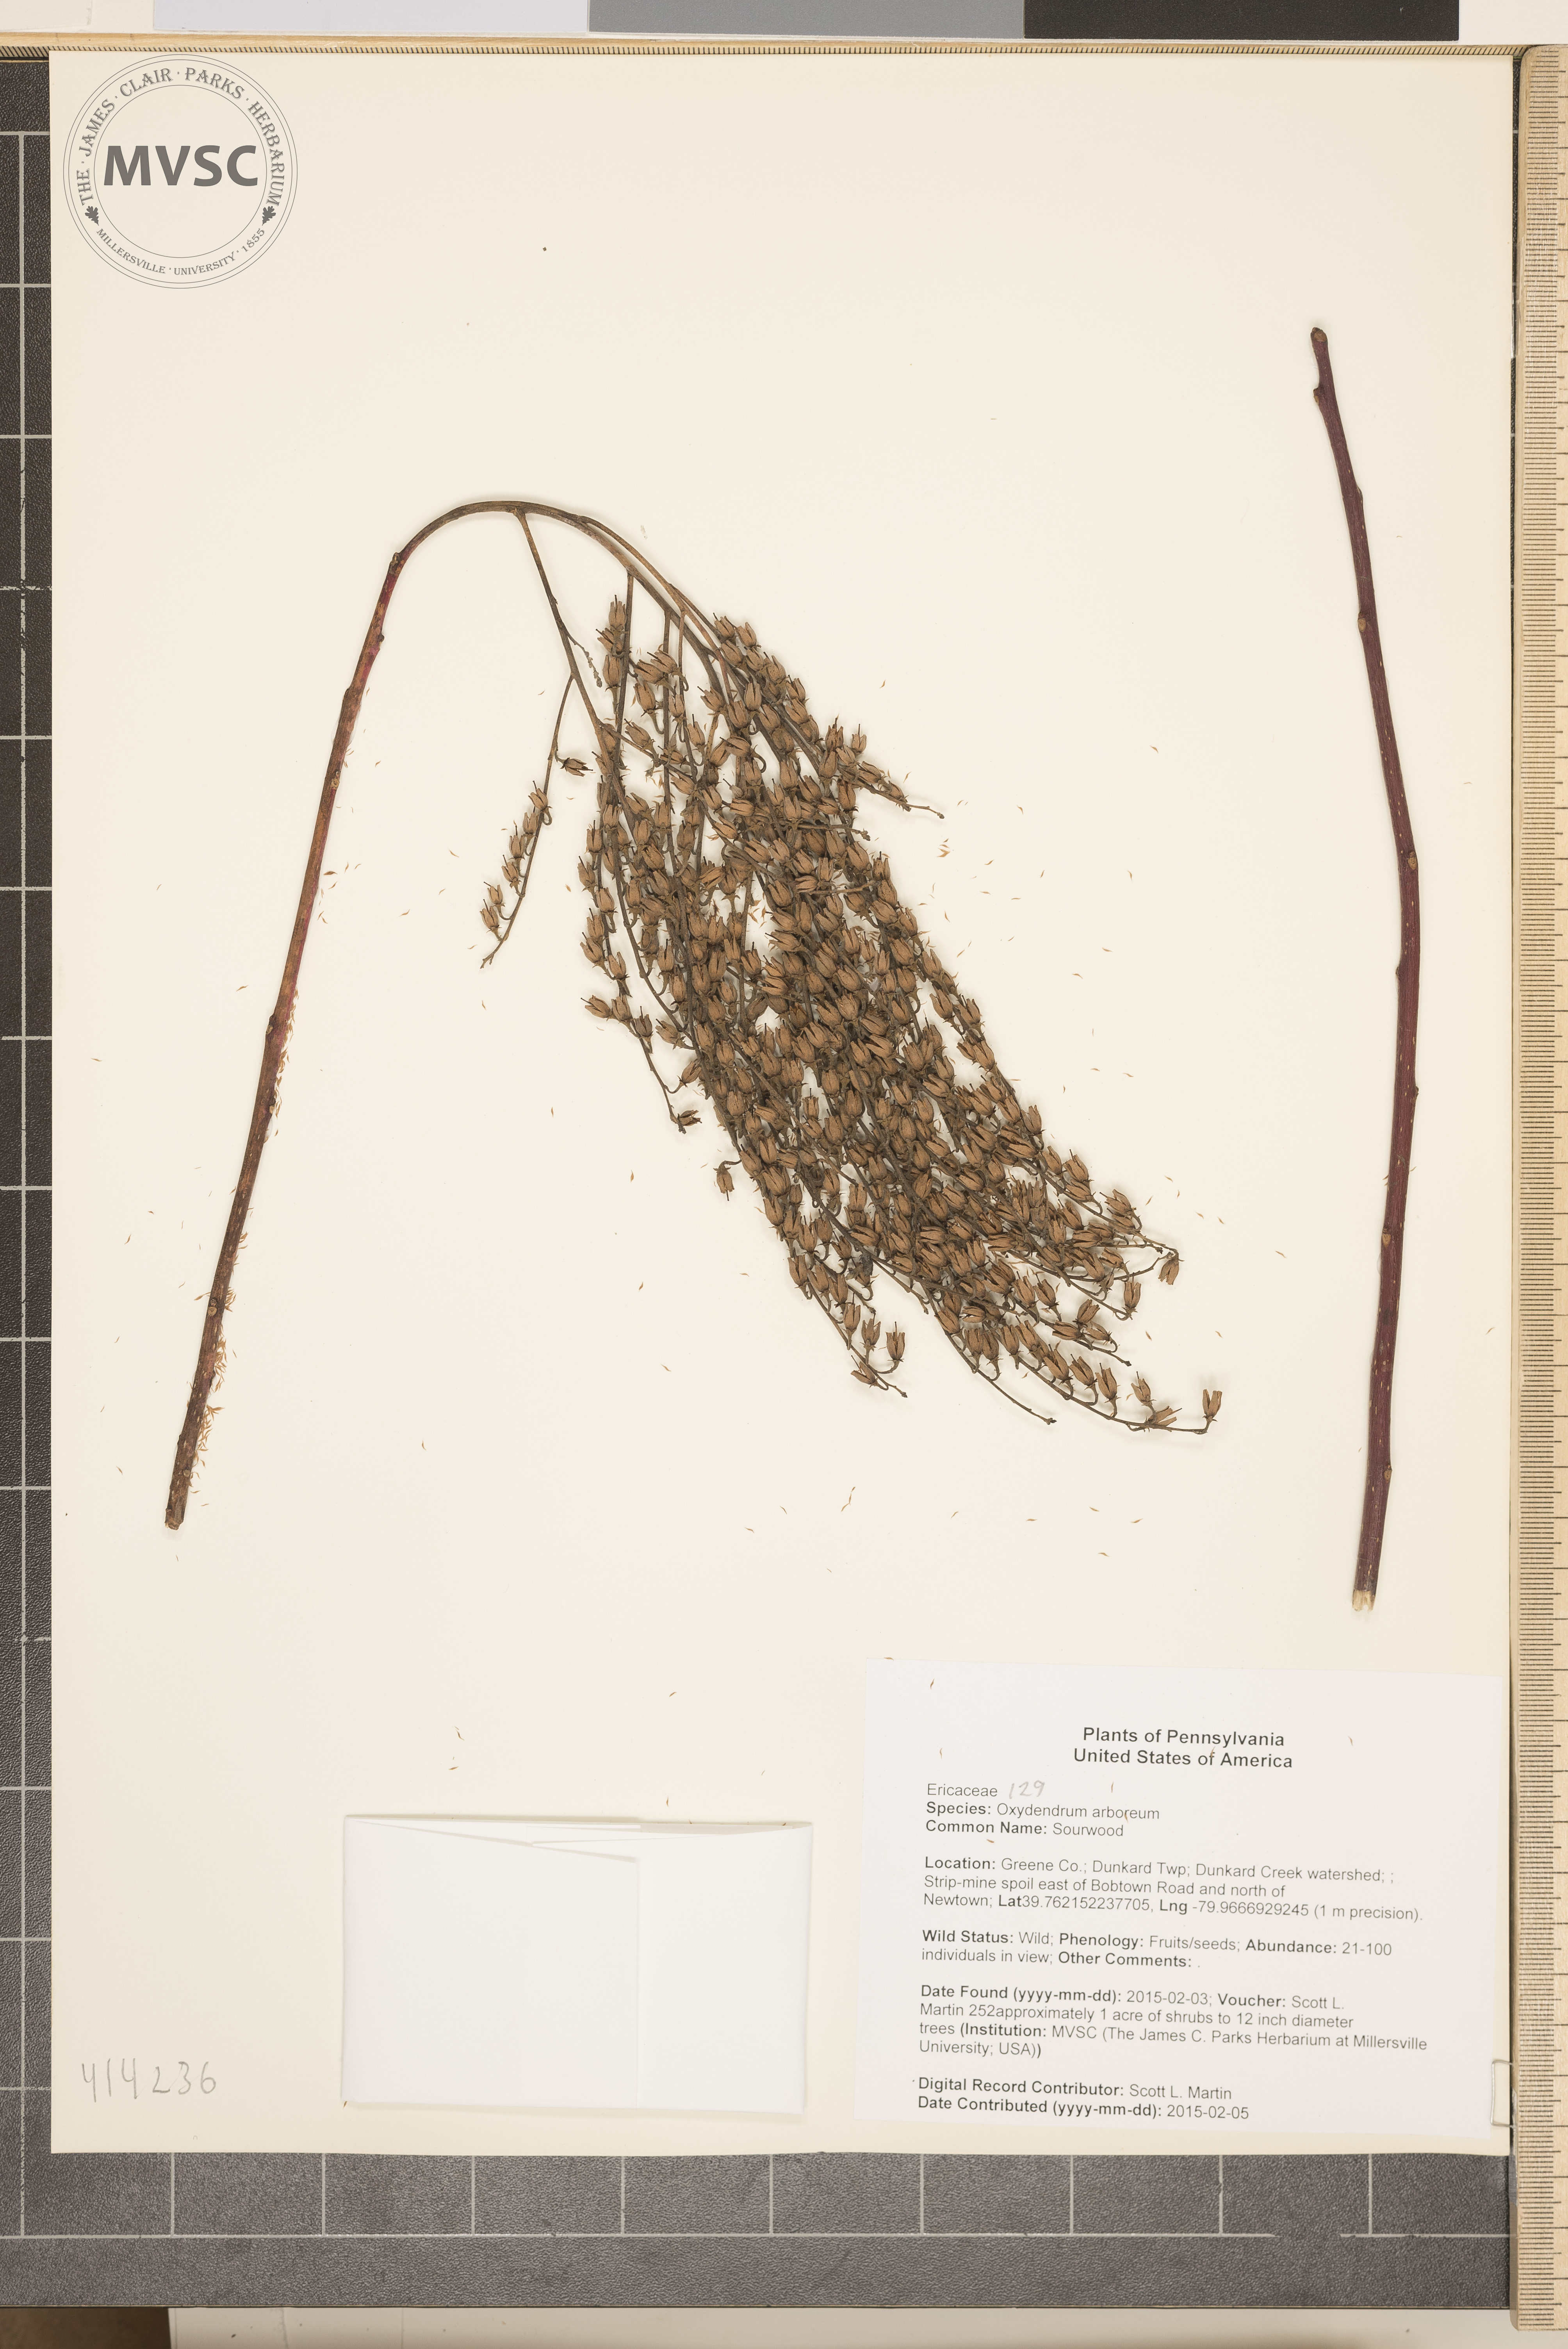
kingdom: Plantae
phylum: Tracheophyta
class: Magnoliopsida
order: Ericales
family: Ericaceae
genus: Oxydendrum
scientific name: Oxydendrum arboreum
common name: Sourwood
